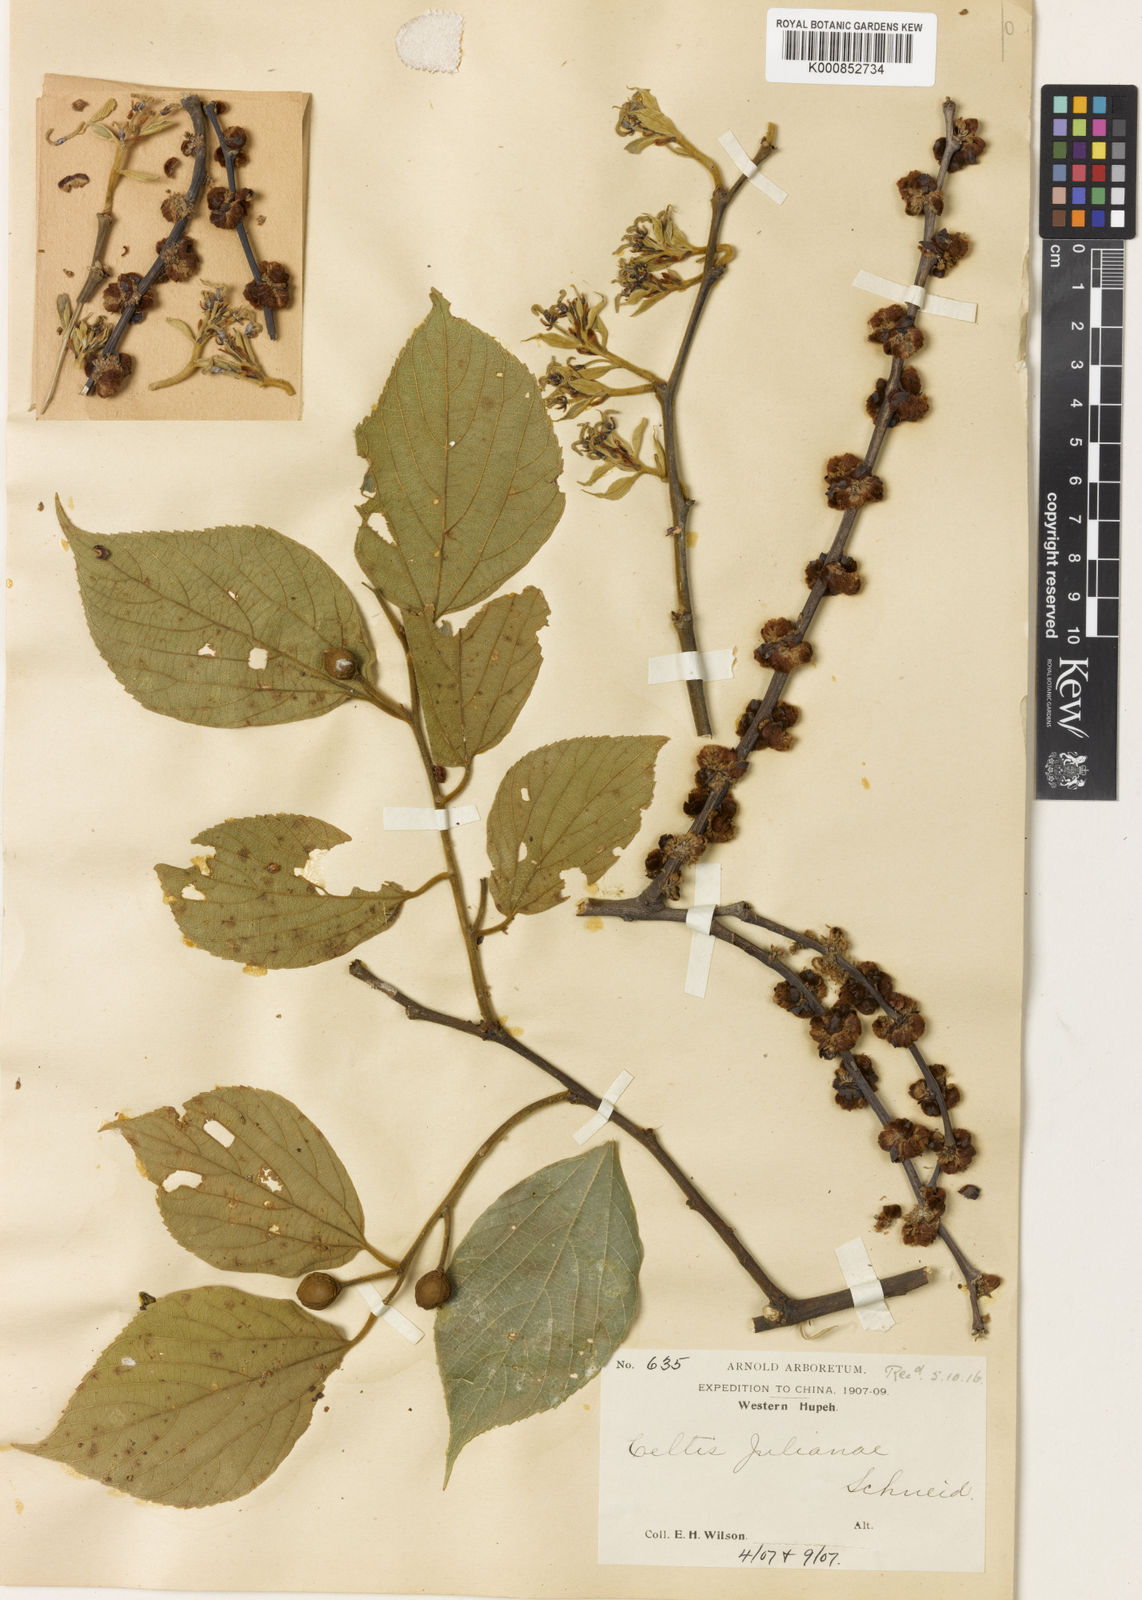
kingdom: Plantae
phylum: Tracheophyta
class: Magnoliopsida
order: Rosales
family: Cannabaceae
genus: Celtis
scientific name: Celtis julianae
